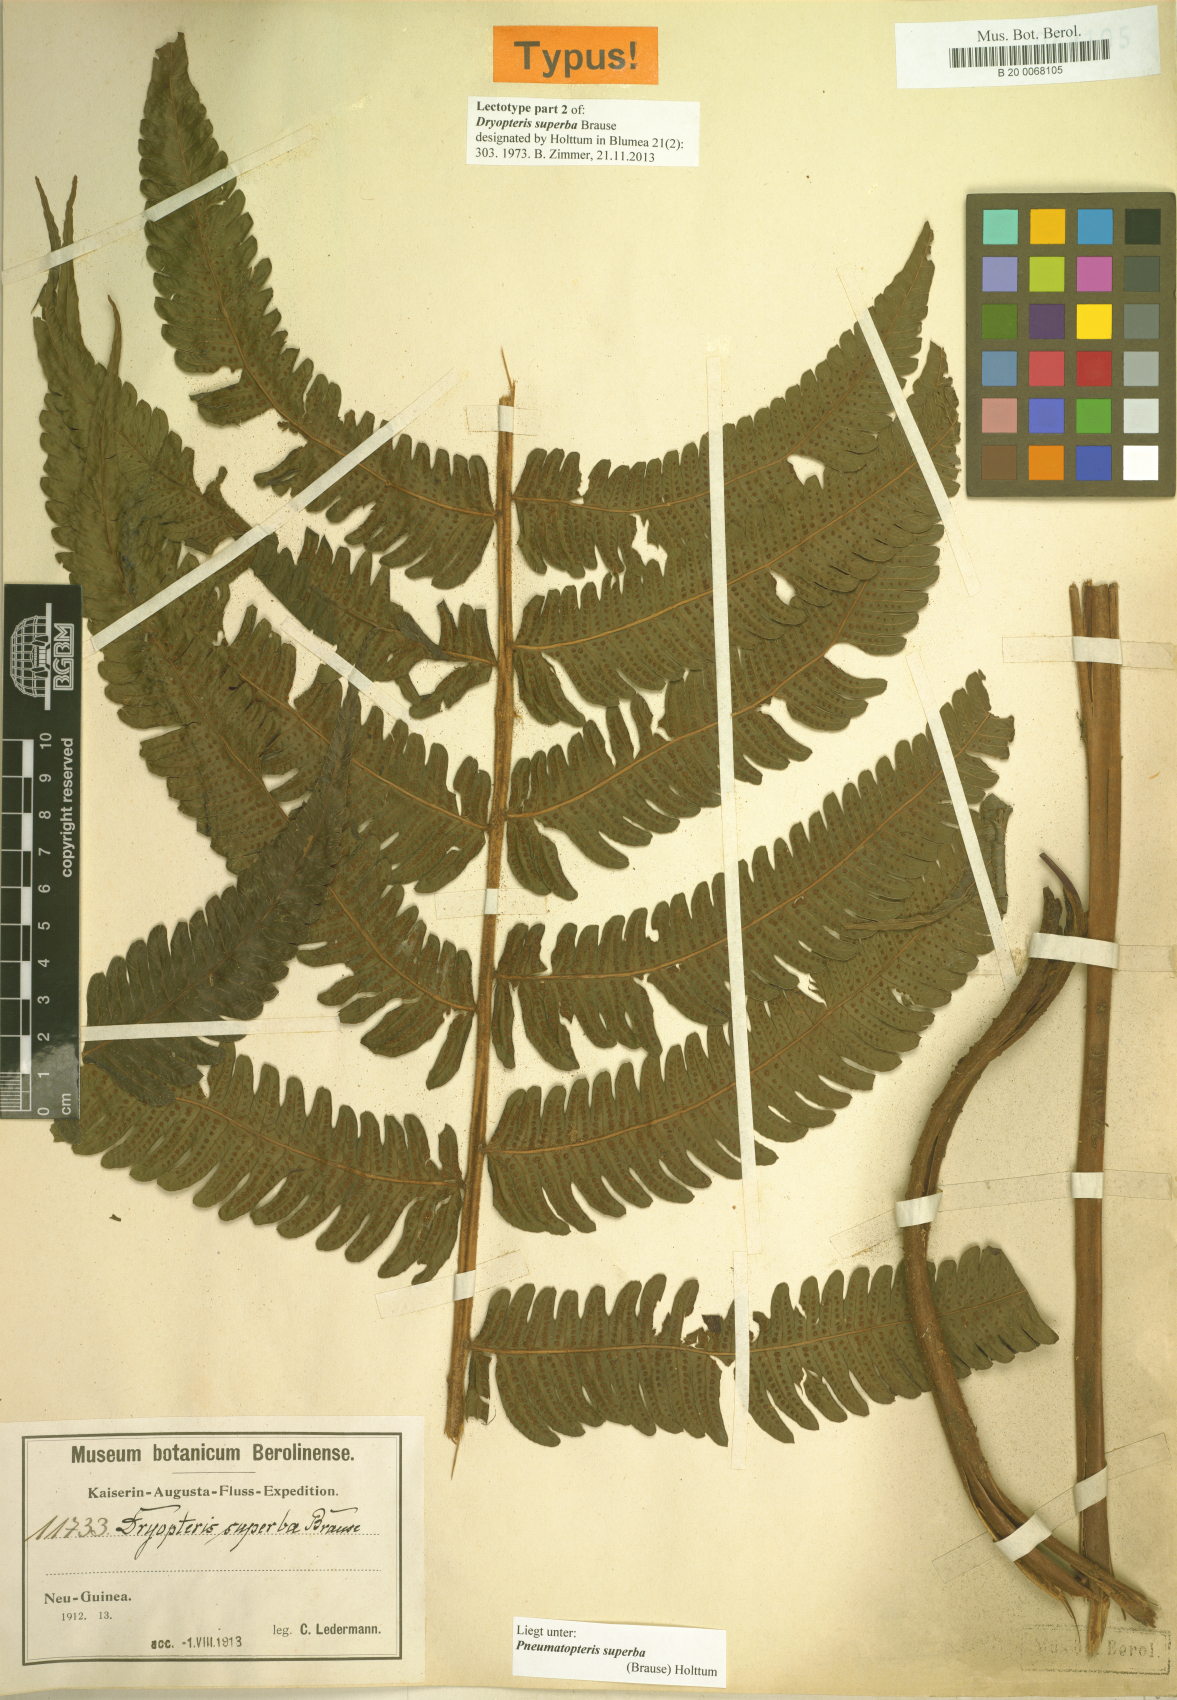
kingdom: Plantae
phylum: Tracheophyta
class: Polypodiopsida
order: Polypodiales
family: Thelypteridaceae
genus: Sphaerostephanos
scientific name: Sphaerostephanos superbus
